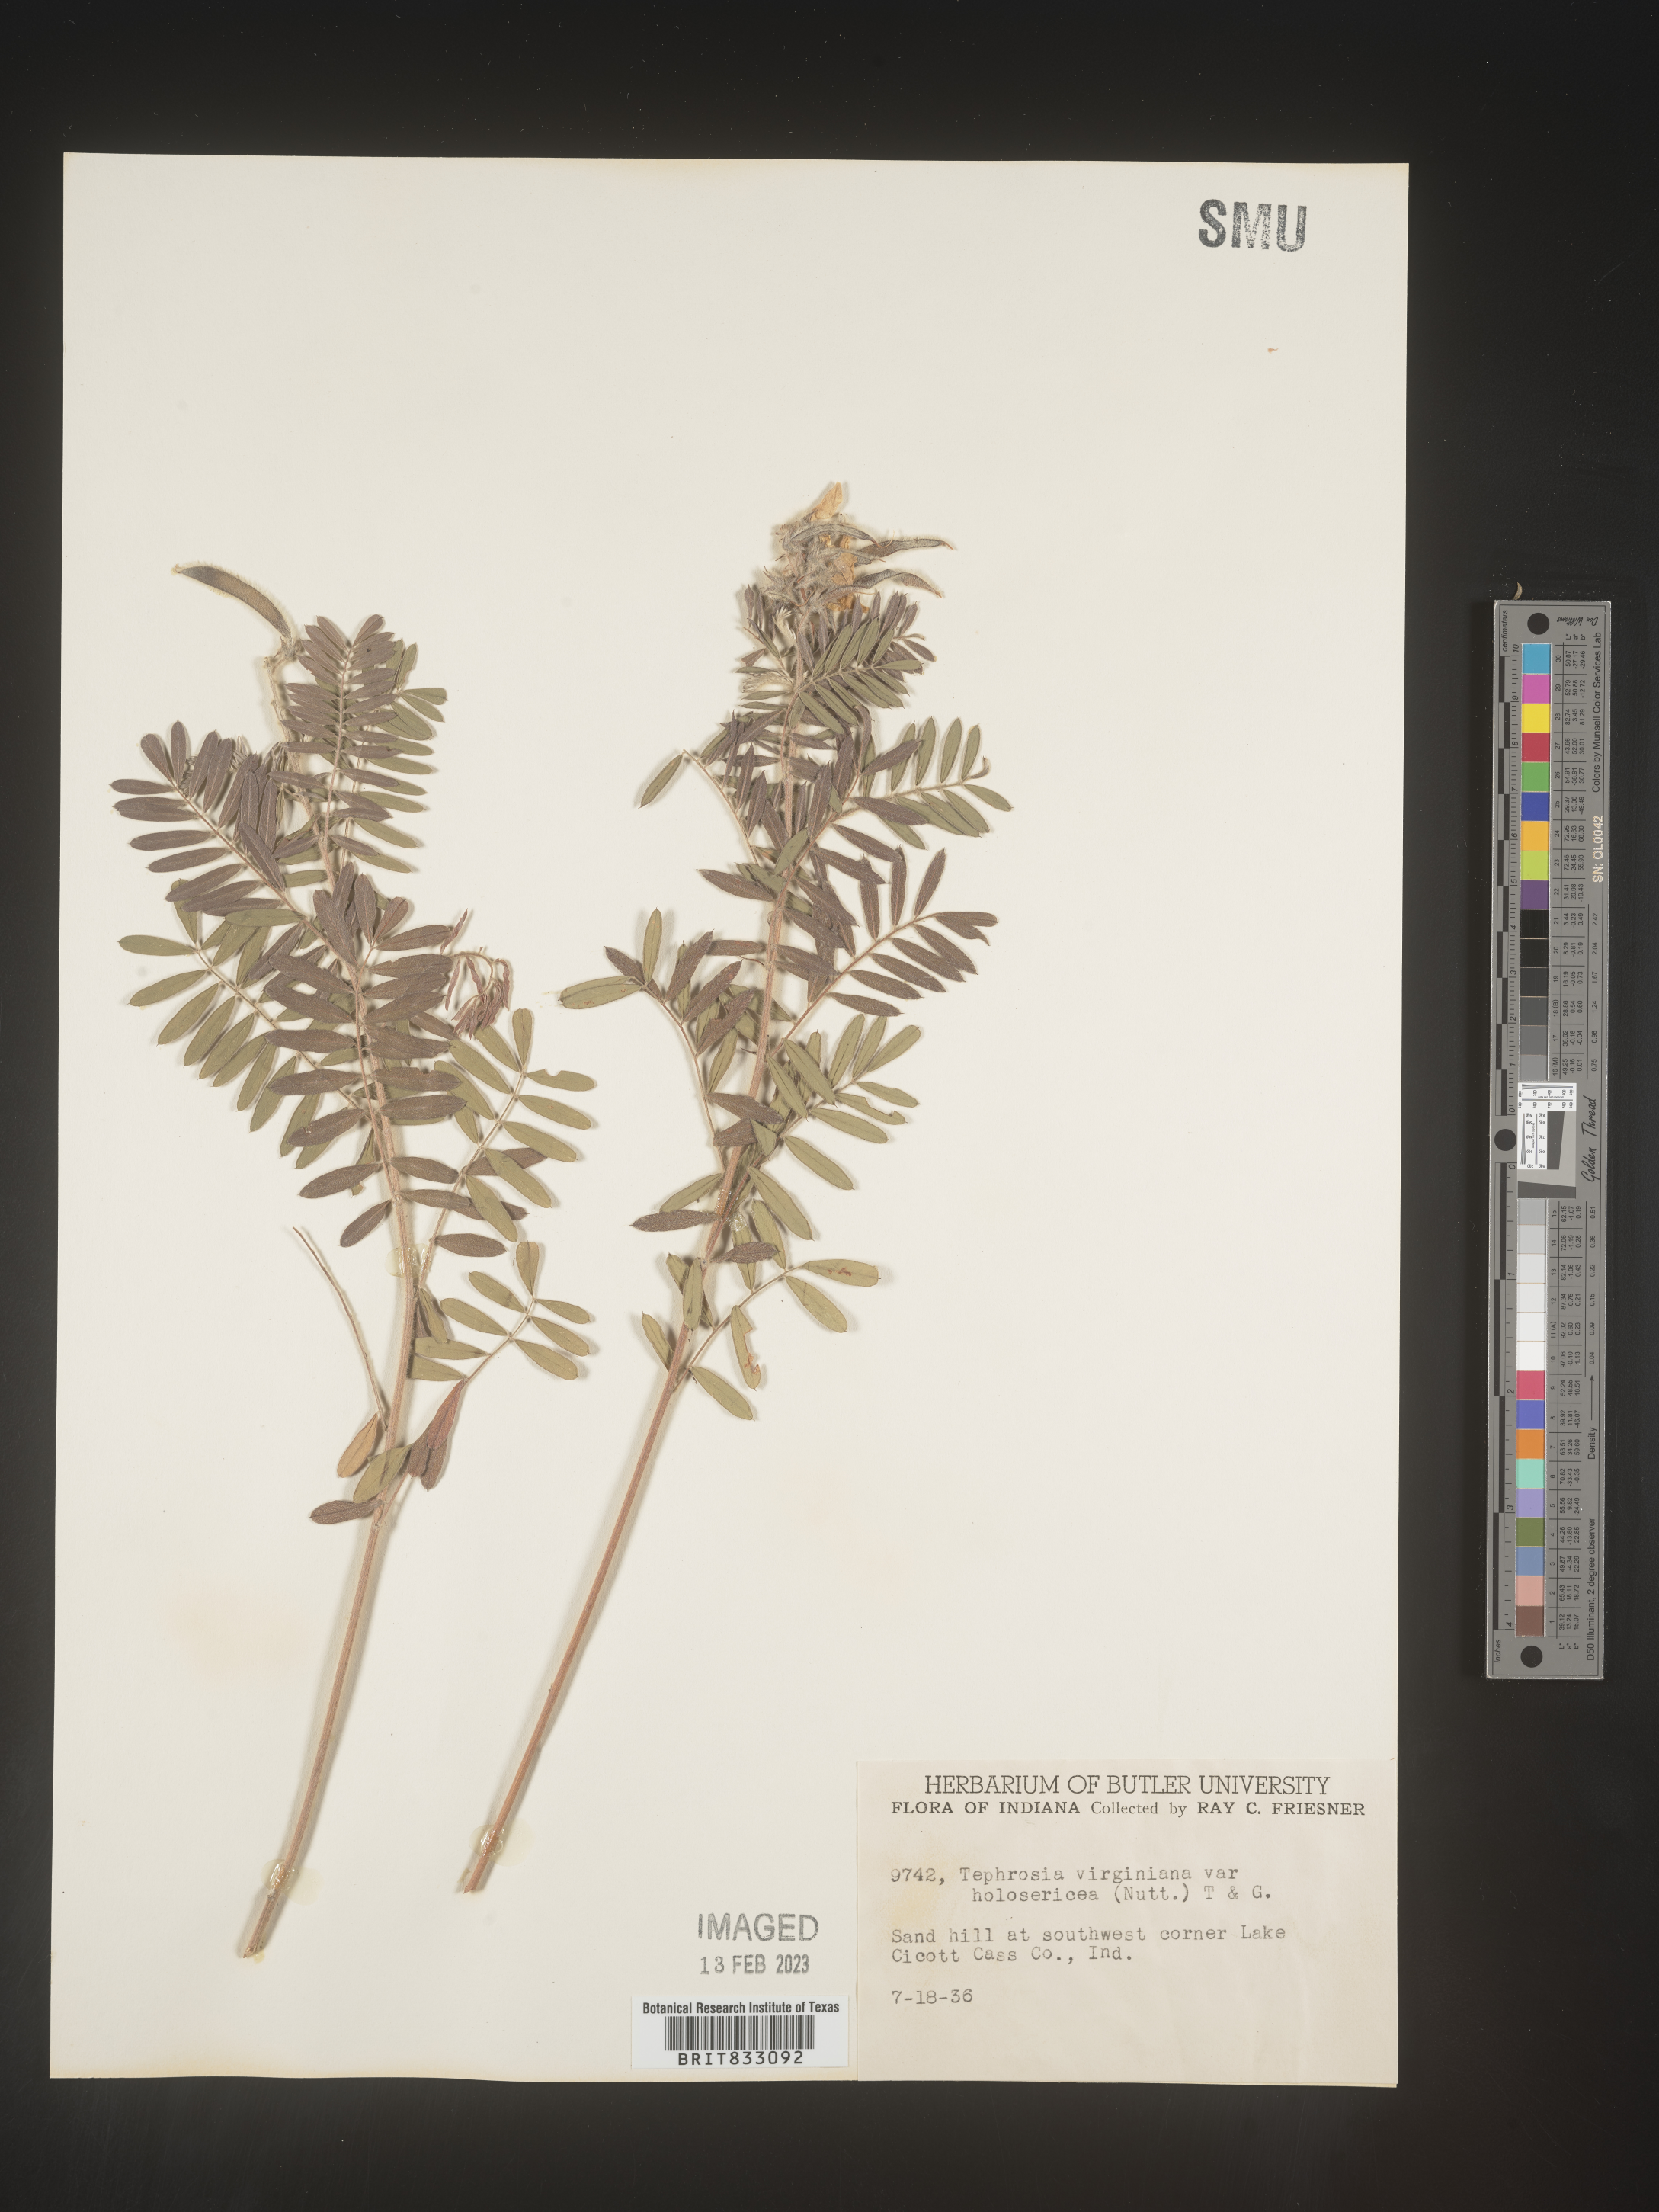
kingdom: Plantae
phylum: Tracheophyta
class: Magnoliopsida
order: Fabales
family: Fabaceae
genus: Tephrosia
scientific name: Tephrosia virginiana
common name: Rabbit-pea
